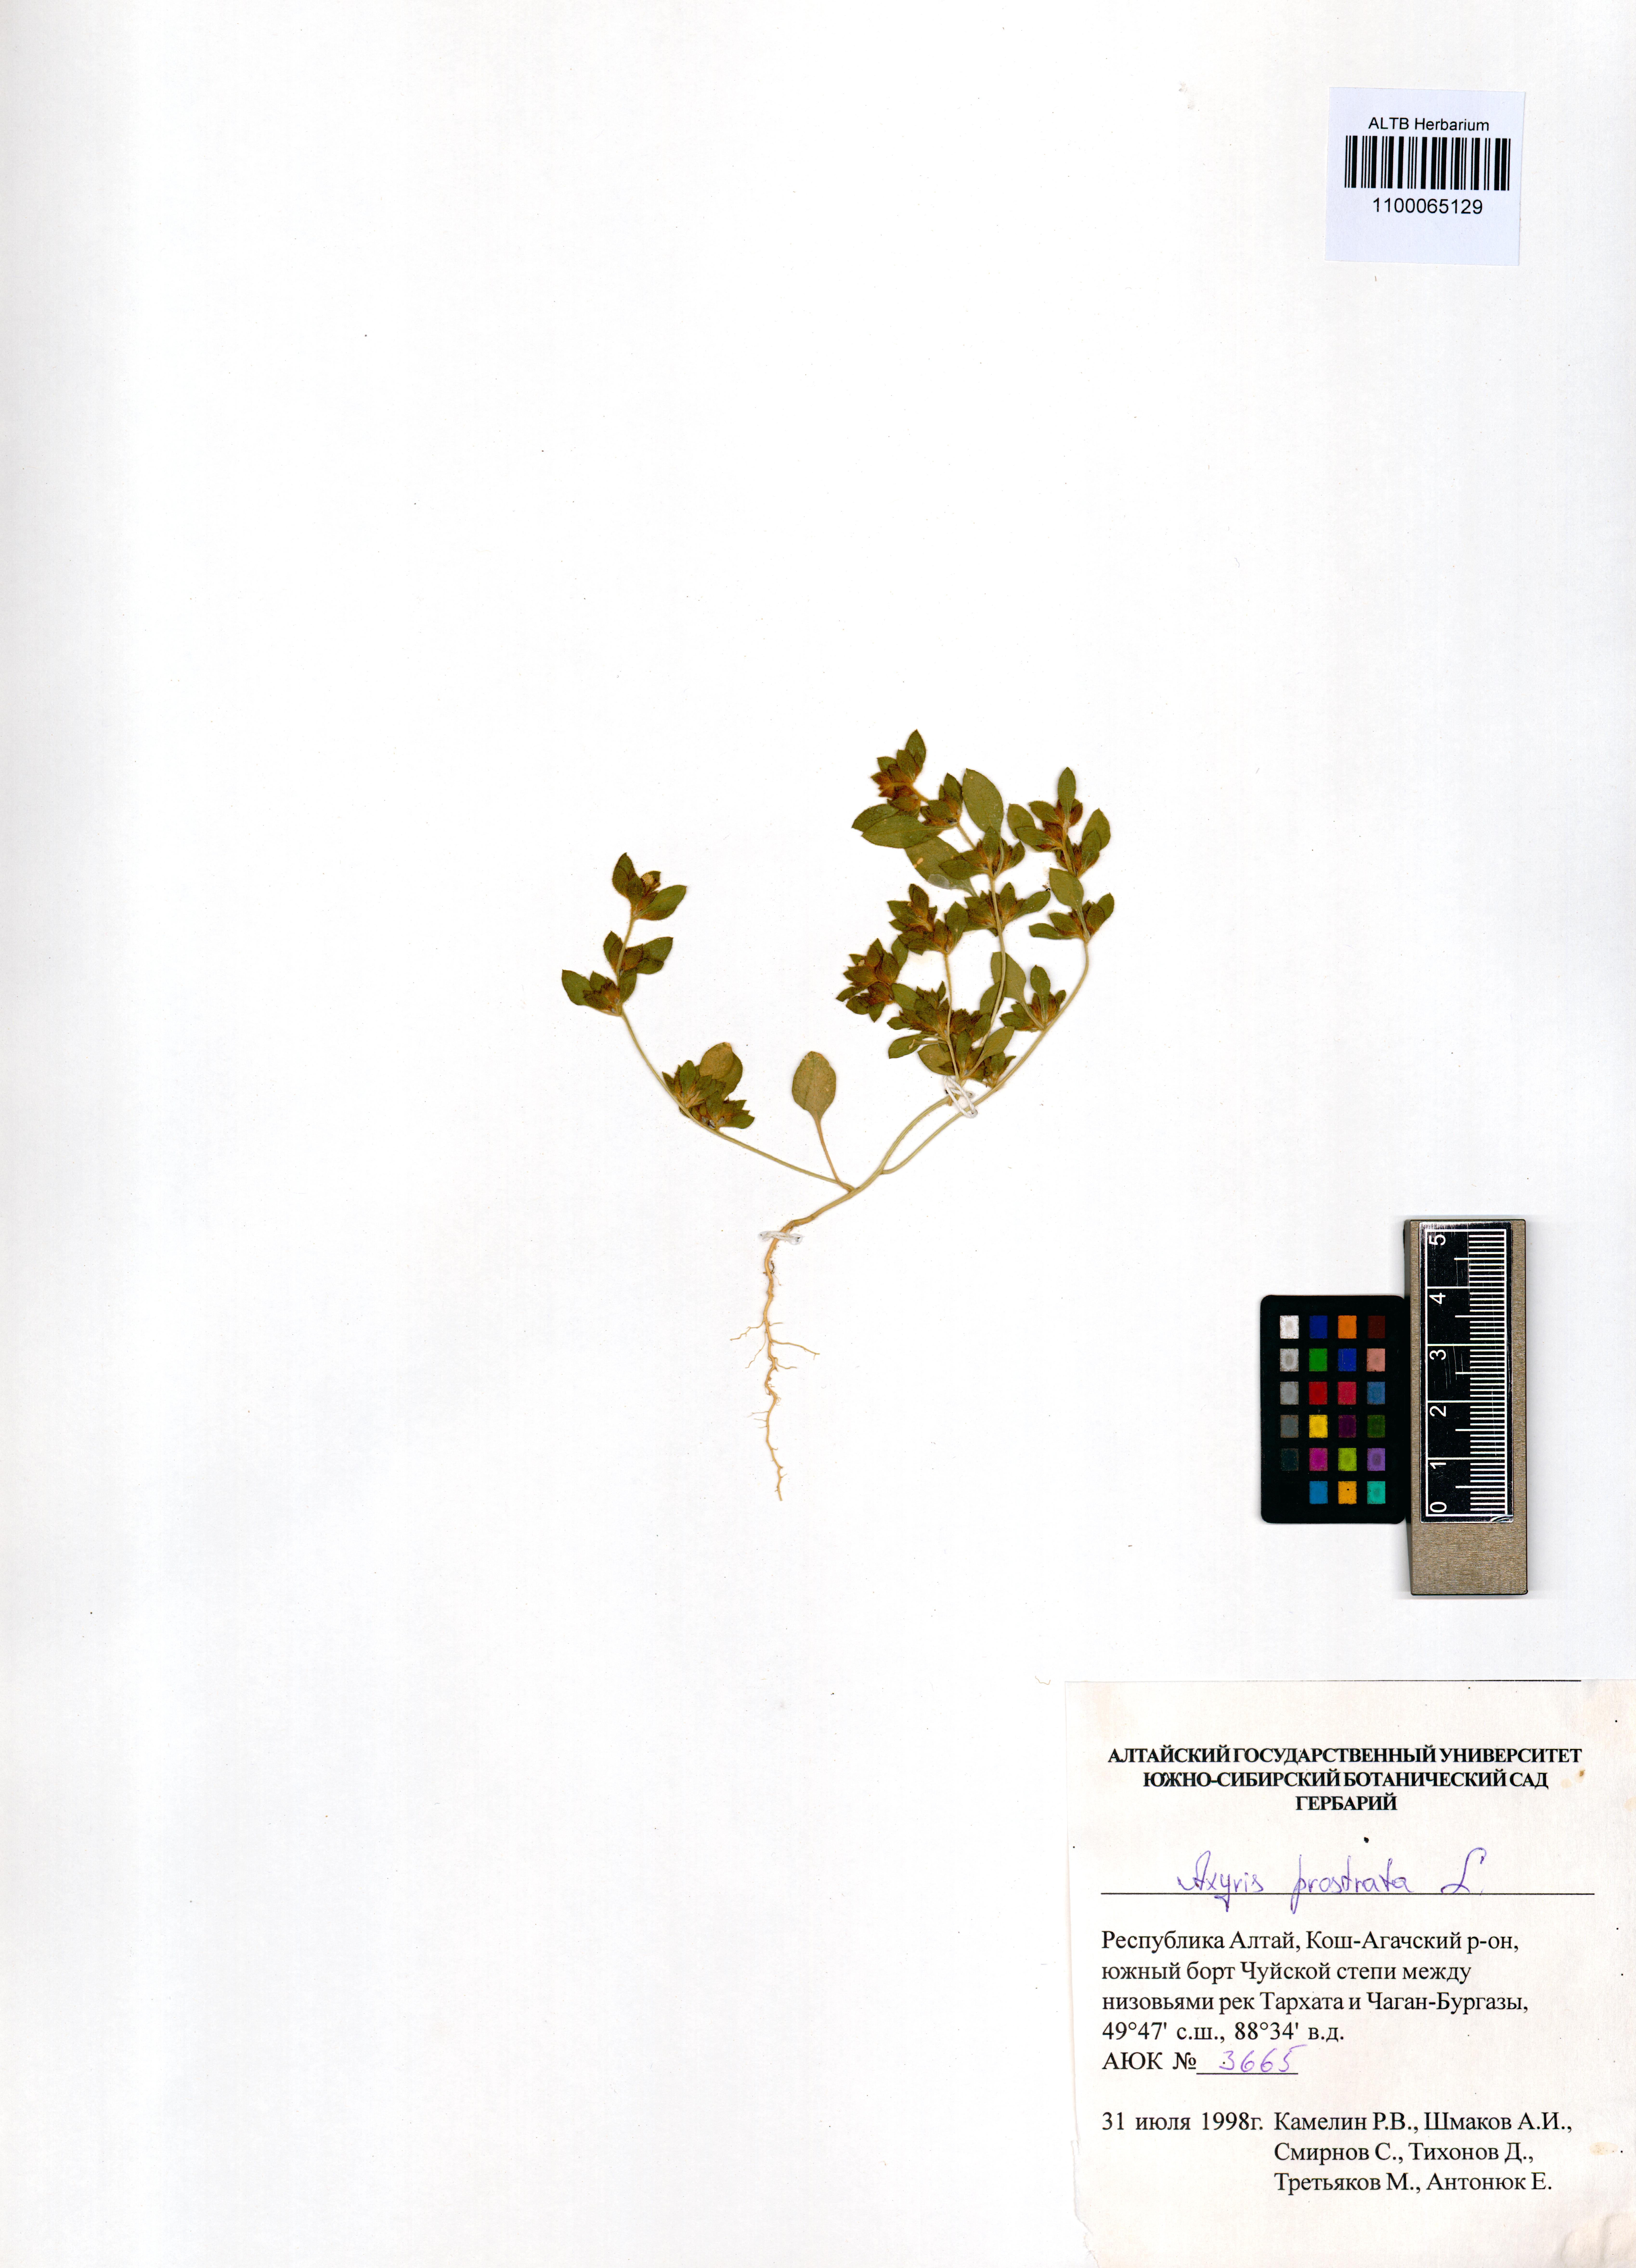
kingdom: Plantae
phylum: Tracheophyta
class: Magnoliopsida
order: Caryophyllales
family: Amaranthaceae
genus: Axyris
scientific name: Axyris prostrata
